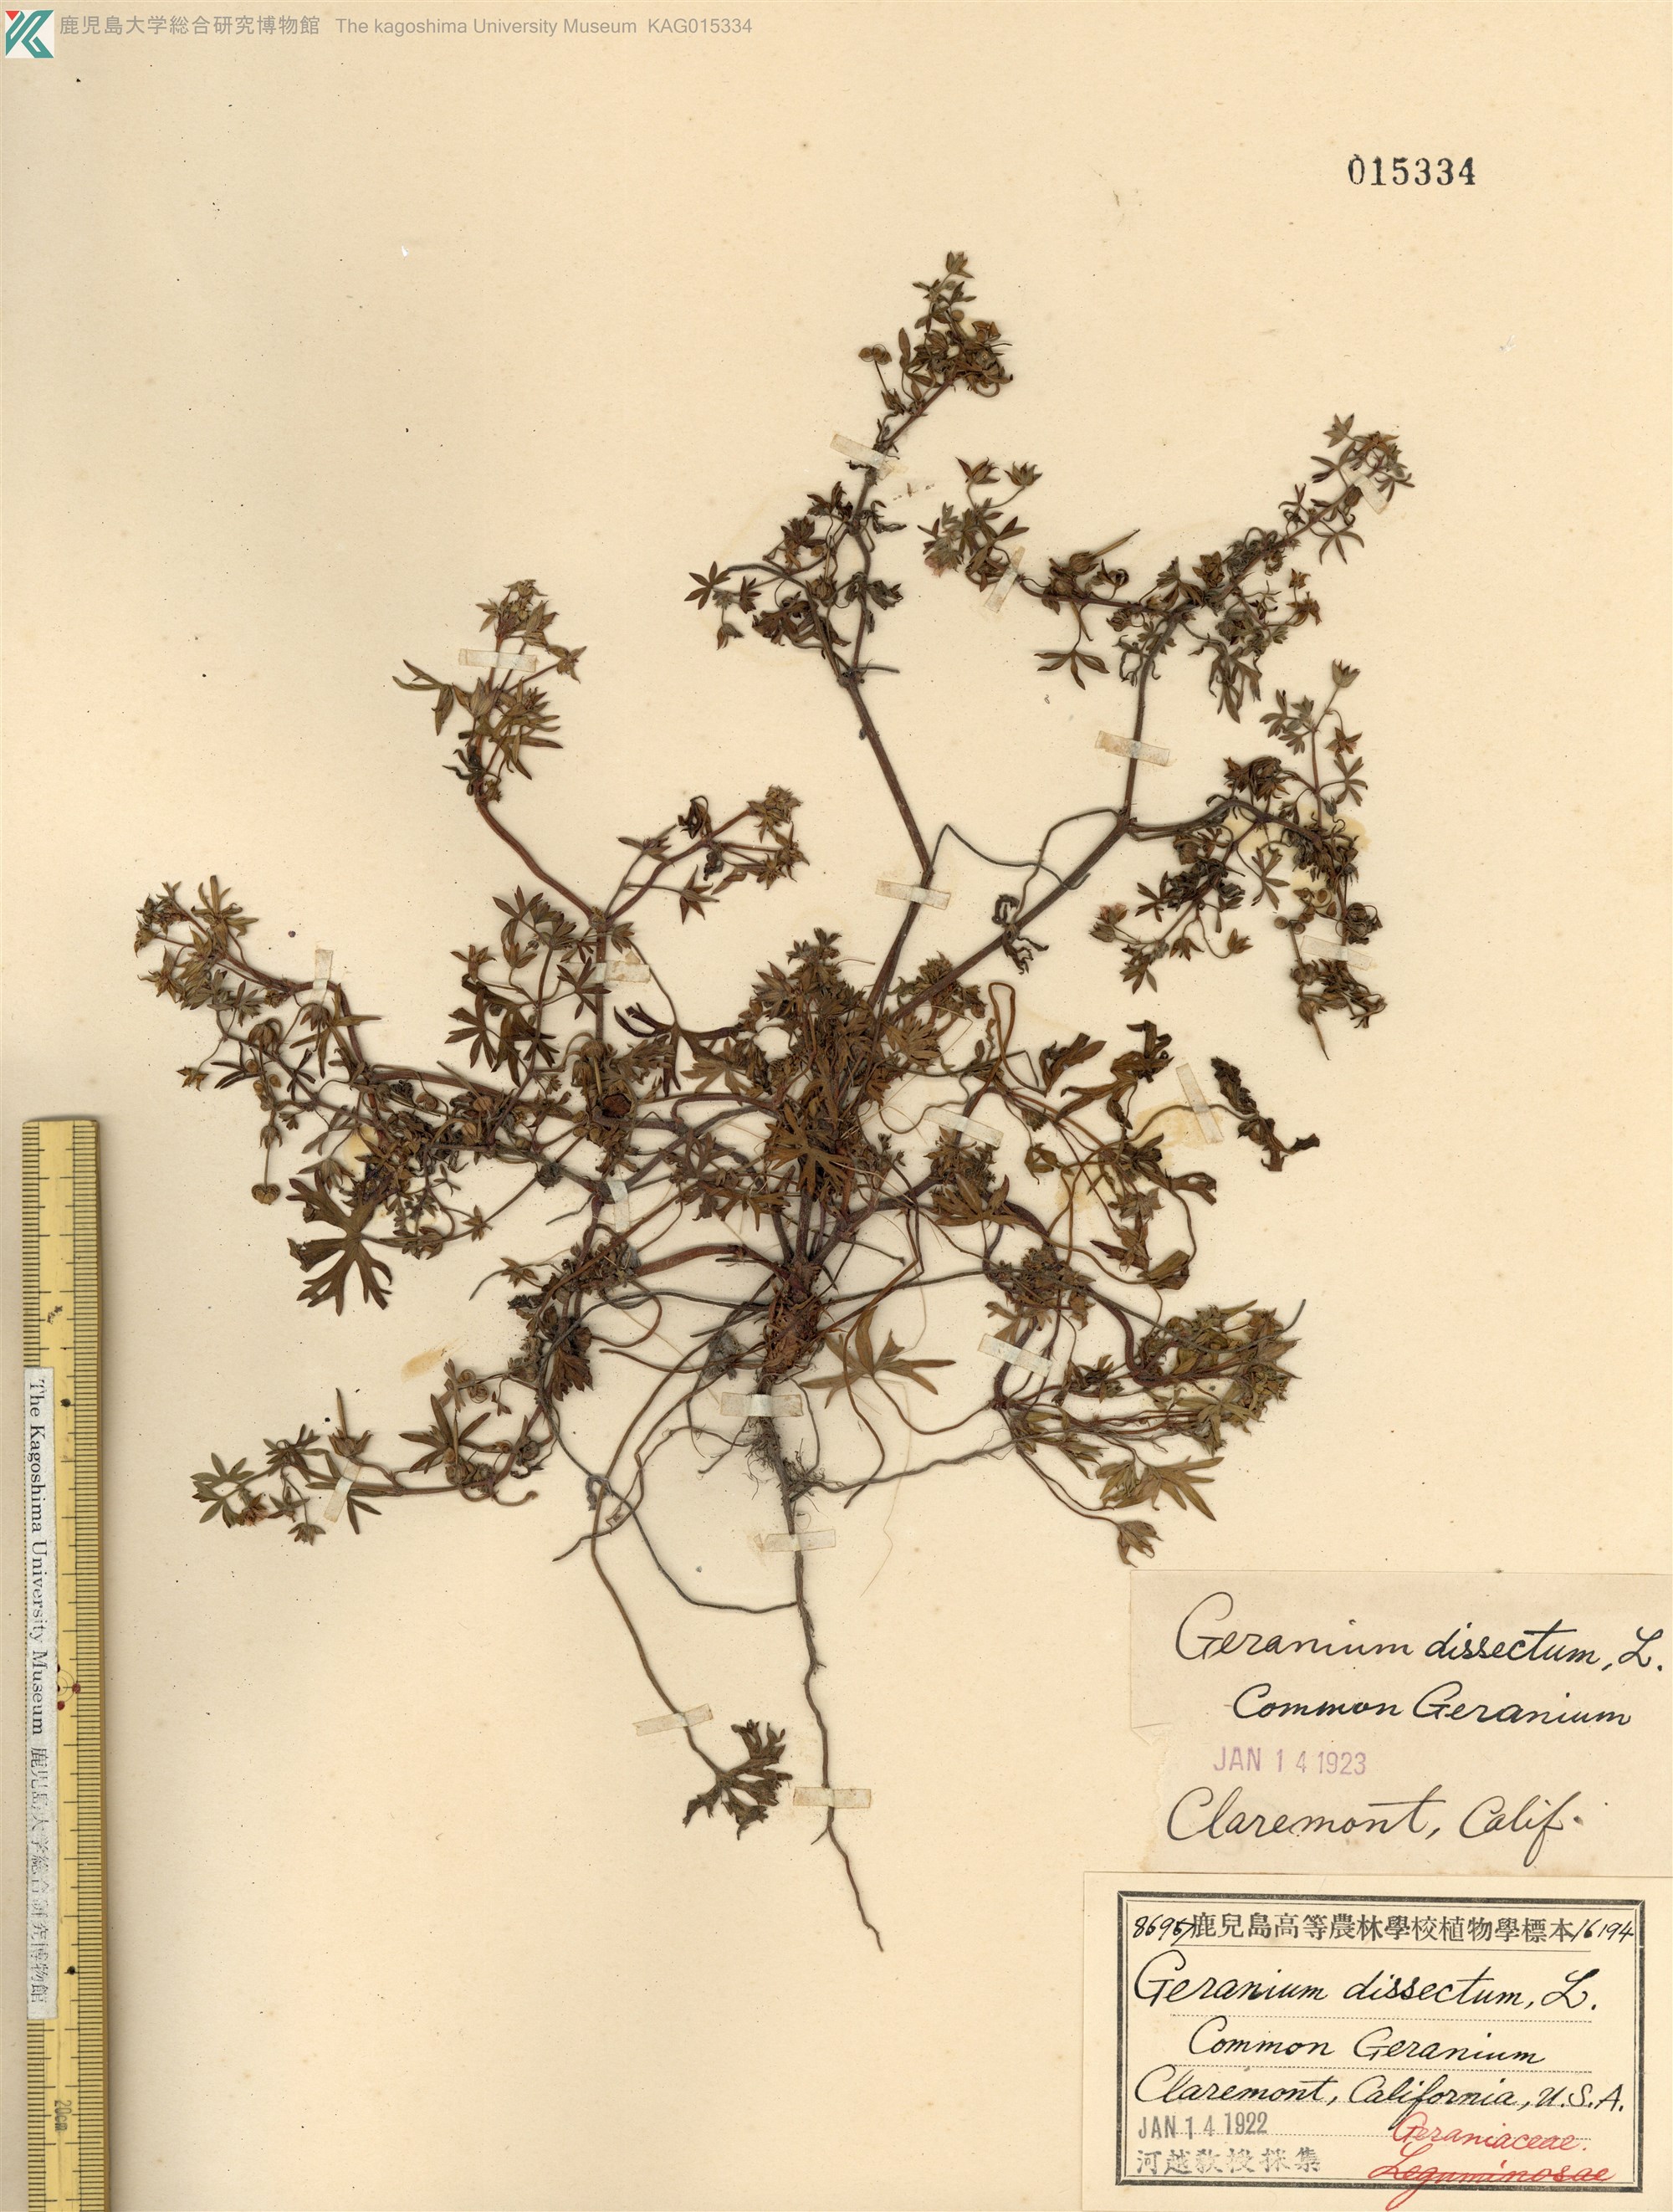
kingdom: Plantae
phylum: Tracheophyta
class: Magnoliopsida
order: Geraniales
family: Geraniaceae
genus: Geranium
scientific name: Geranium dissectum
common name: Cut-leaved crane's-bill
